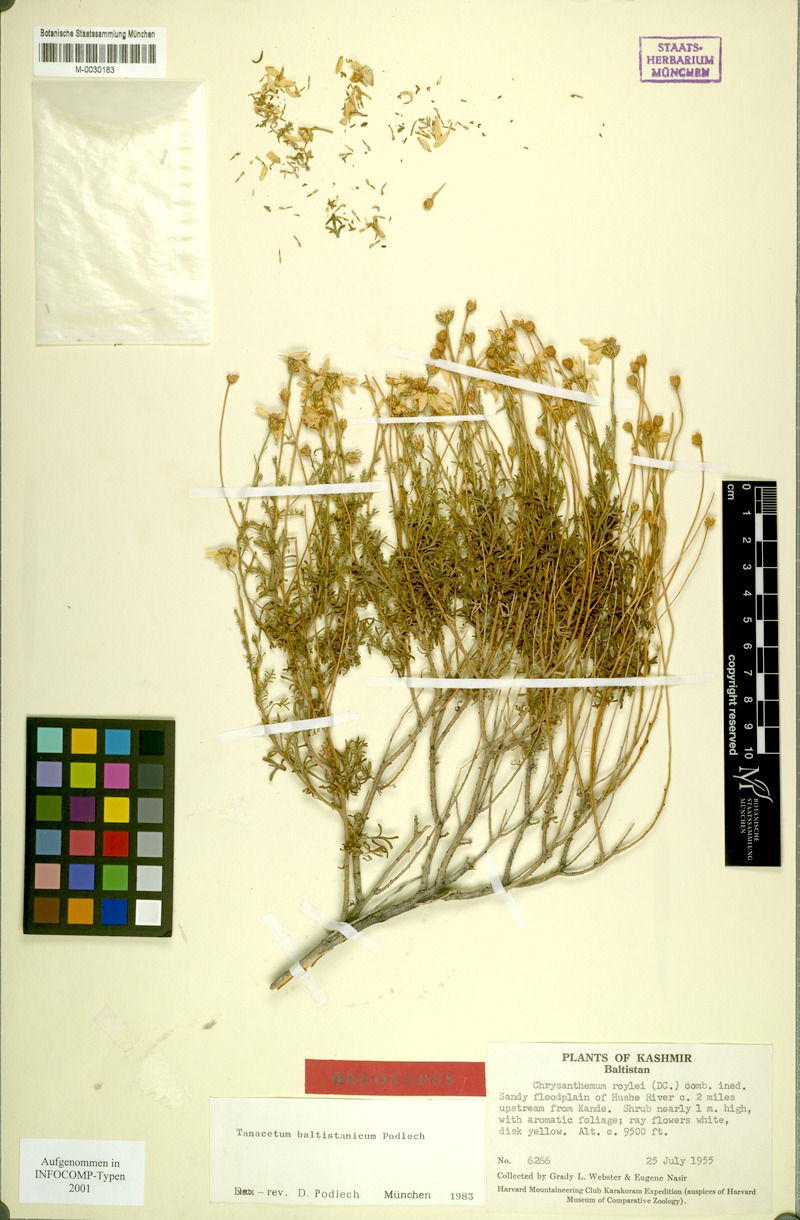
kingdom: Plantae
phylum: Tracheophyta
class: Magnoliopsida
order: Asterales
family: Asteraceae
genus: Tanacetum
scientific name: Tanacetum baltistanicum
